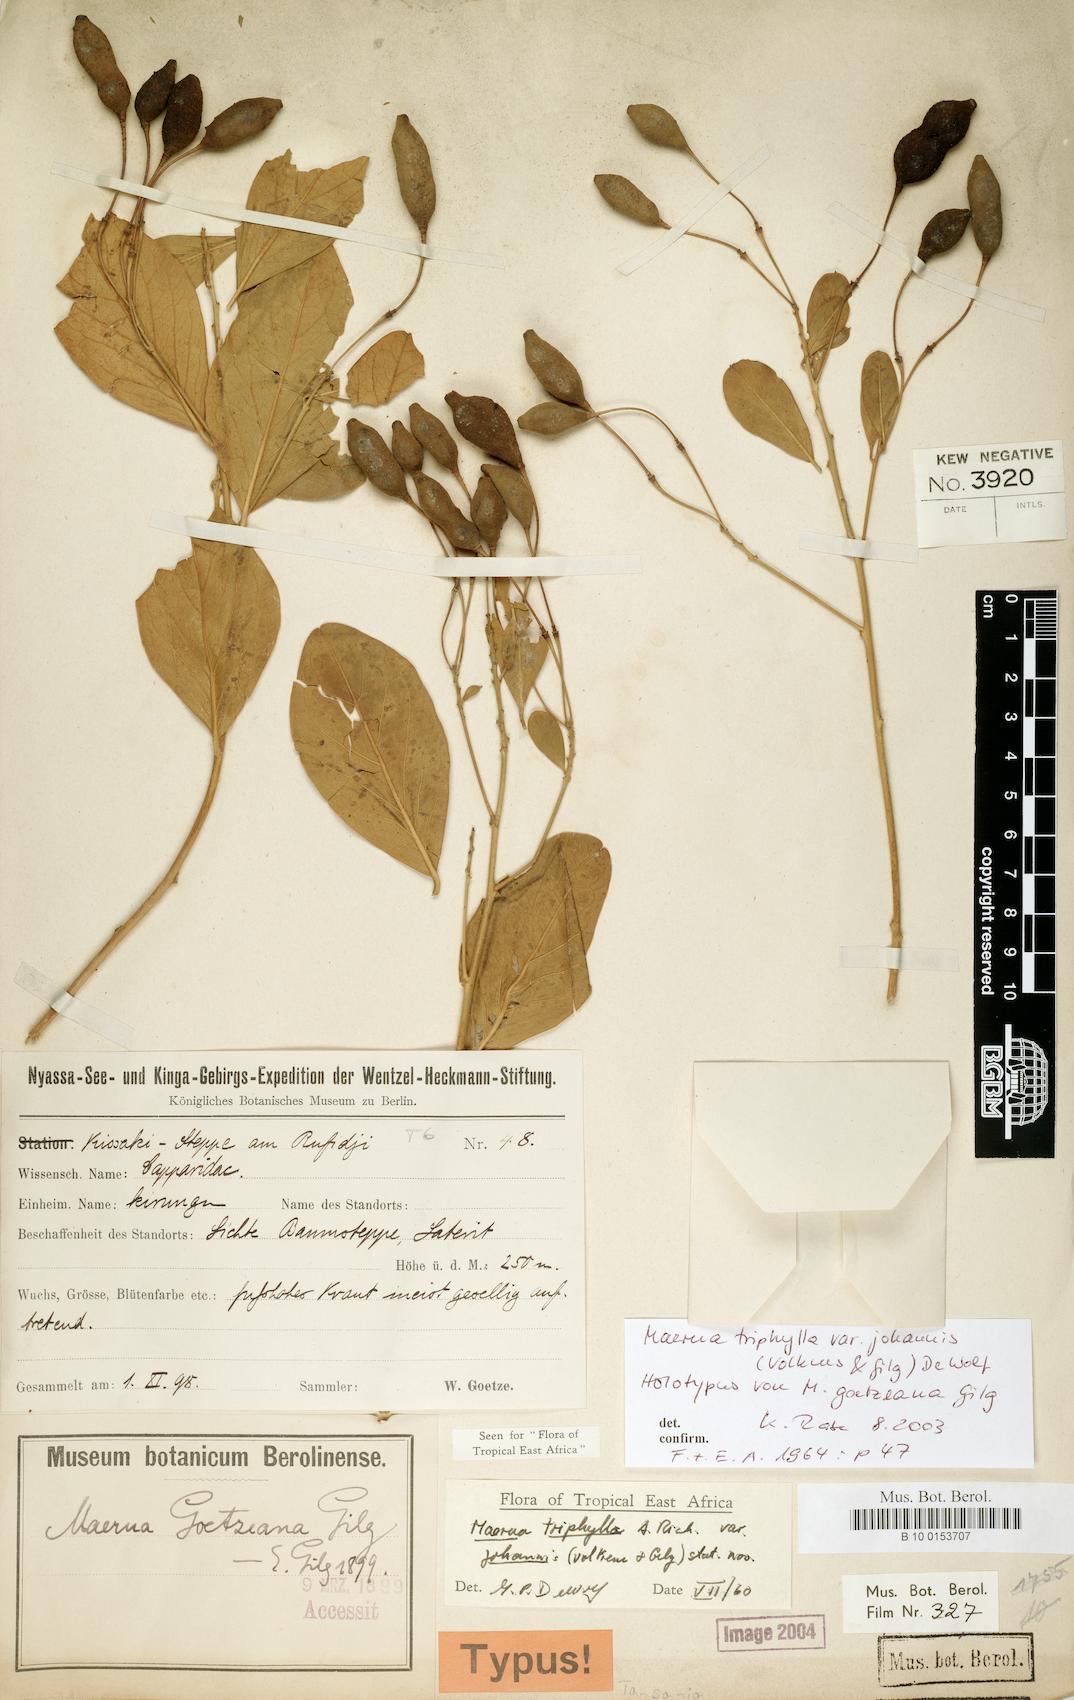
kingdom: Plantae
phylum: Tracheophyta
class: Magnoliopsida
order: Brassicales
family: Capparaceae
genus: Maerua
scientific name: Maerua triphylla
